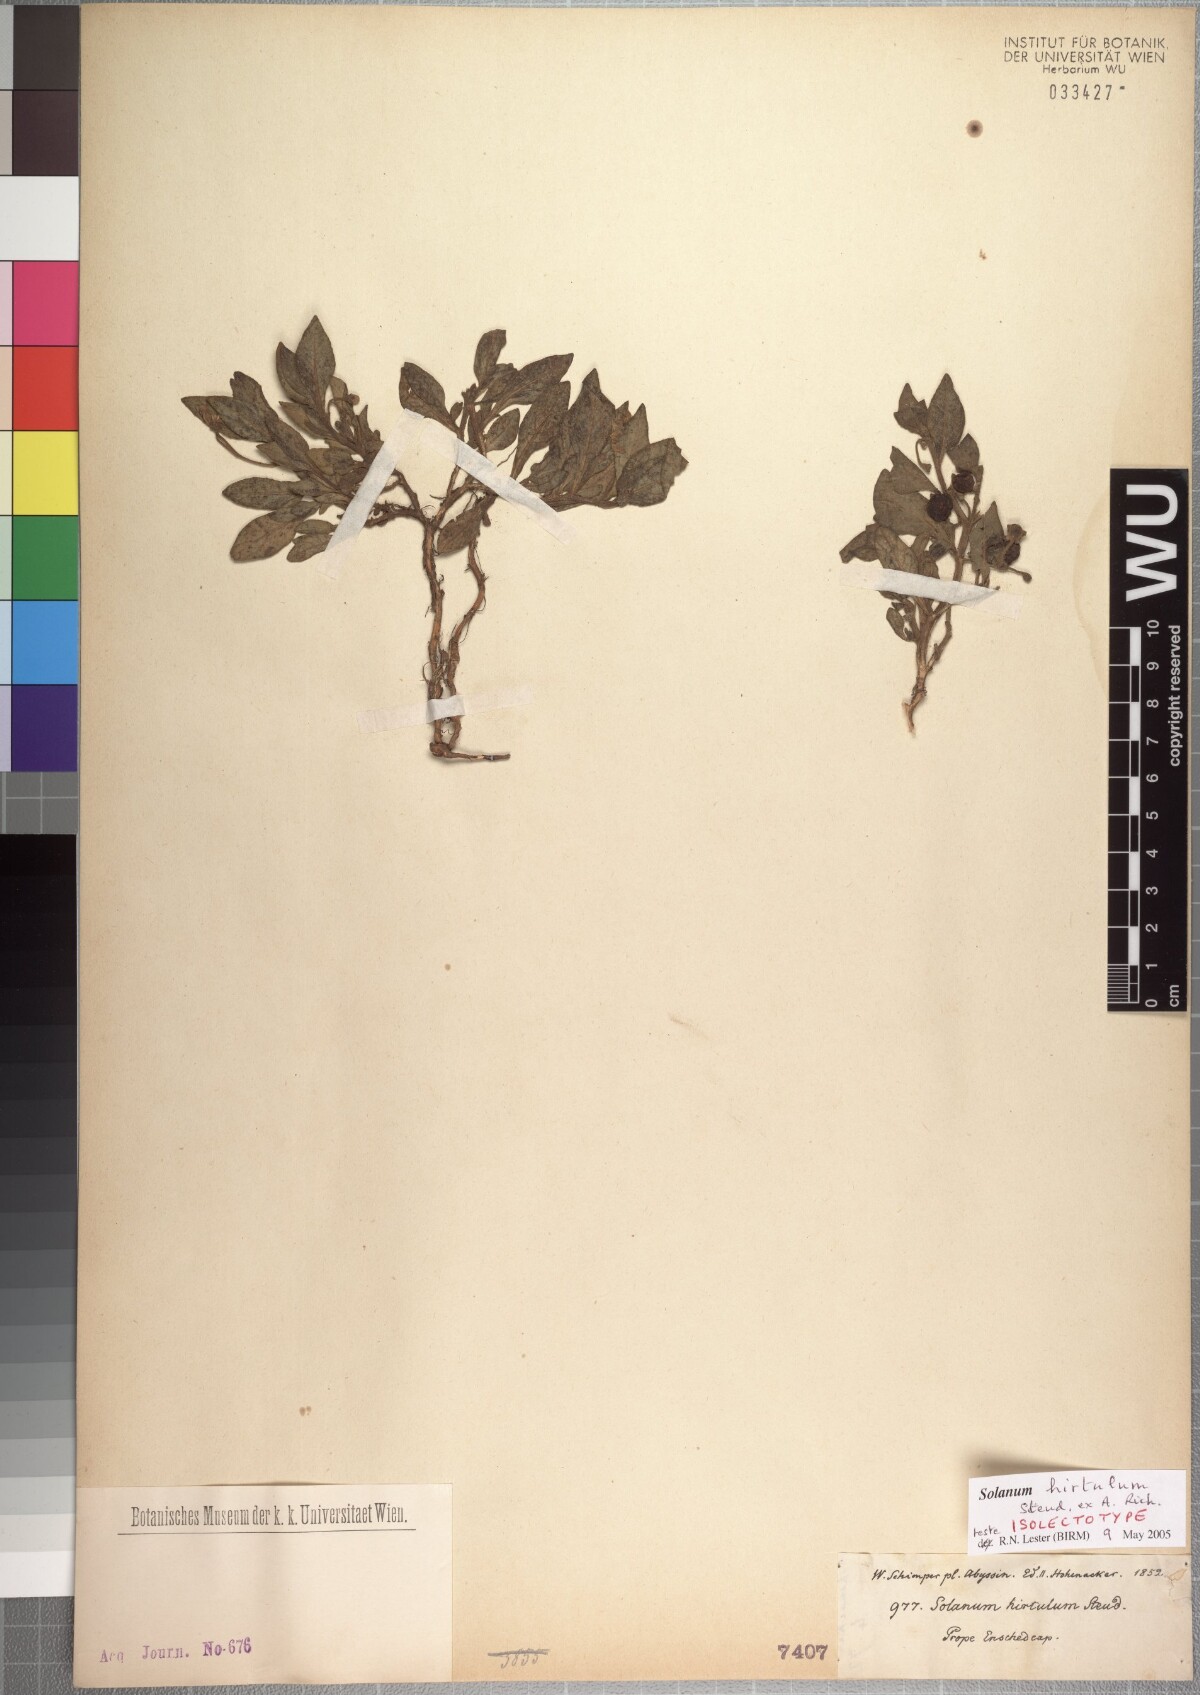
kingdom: Plantae
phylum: Tracheophyta
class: Magnoliopsida
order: Solanales
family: Solanaceae
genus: Solanum
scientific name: Solanum hirtulum
